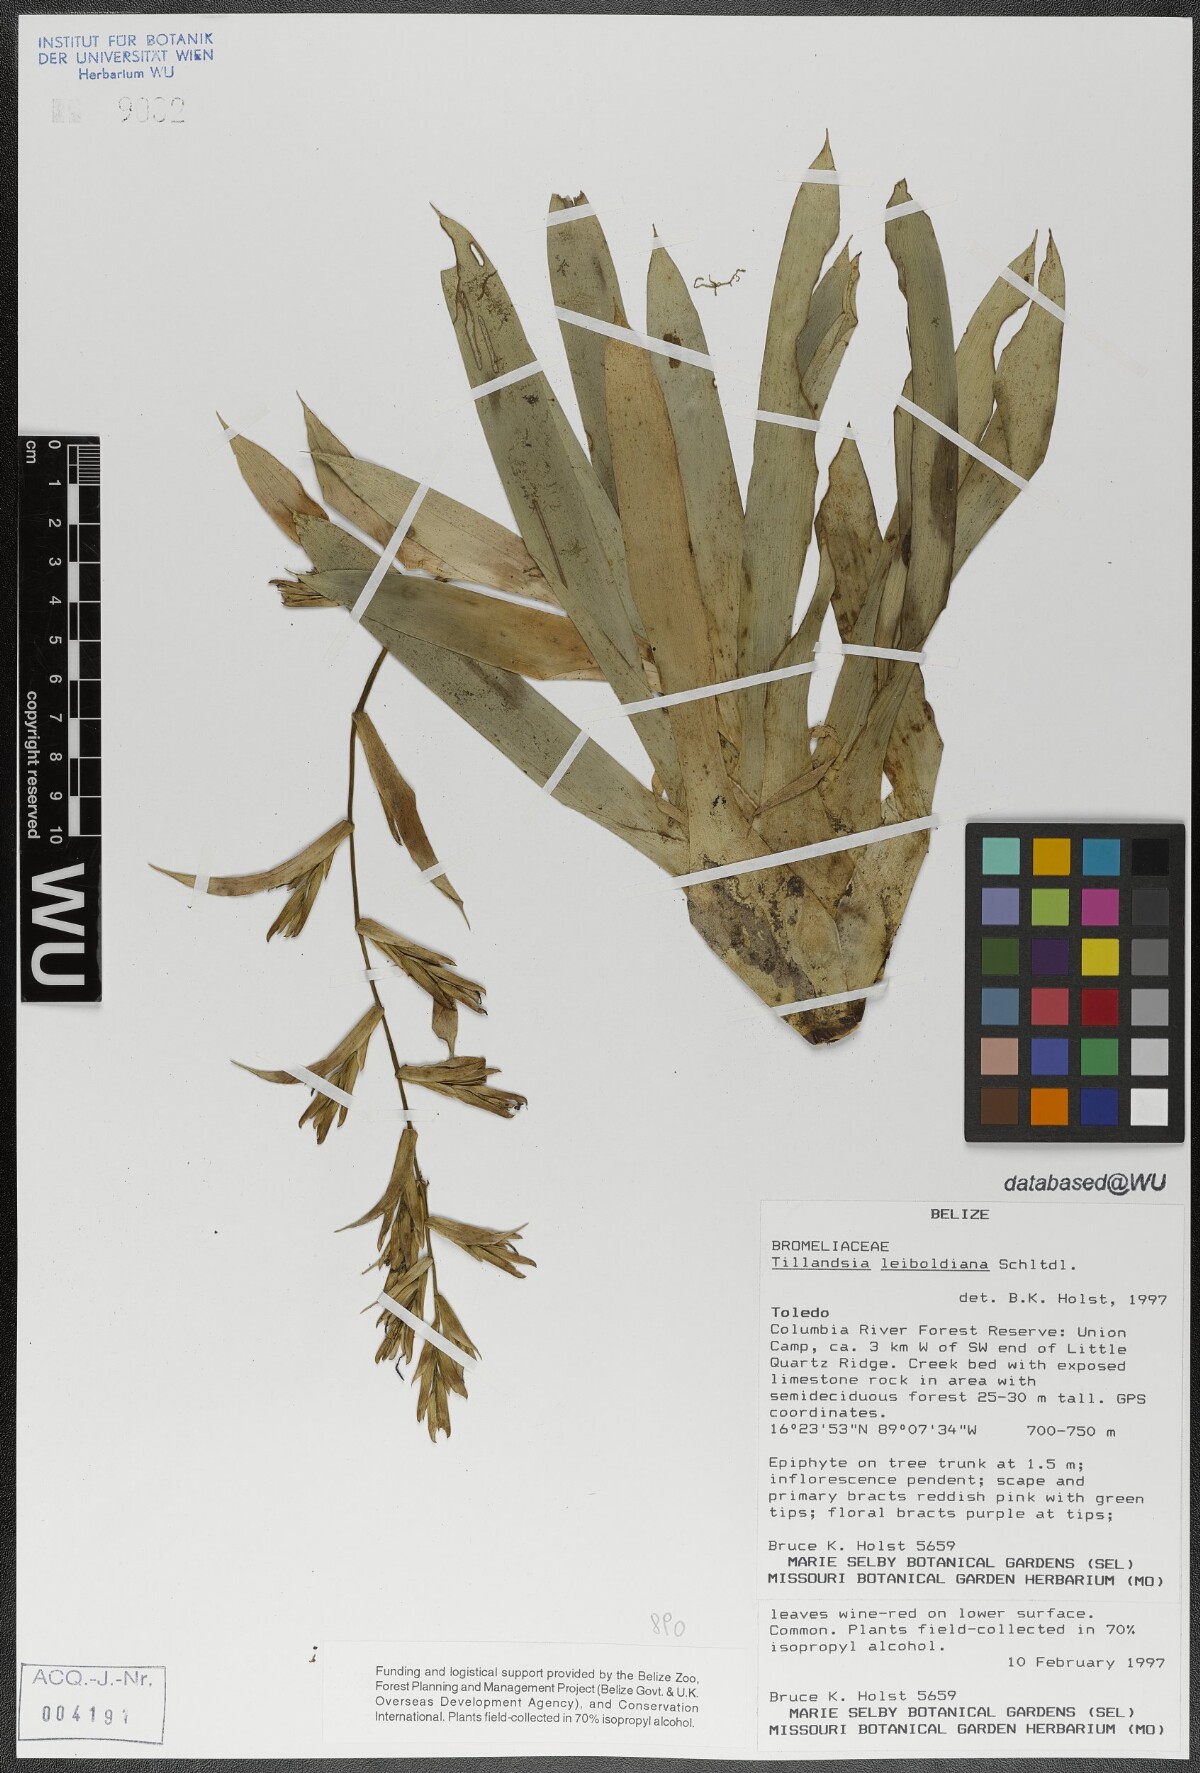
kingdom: Plantae
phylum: Tracheophyta
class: Liliopsida
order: Poales
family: Bromeliaceae
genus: Tillandsia
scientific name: Tillandsia leiboldiana
